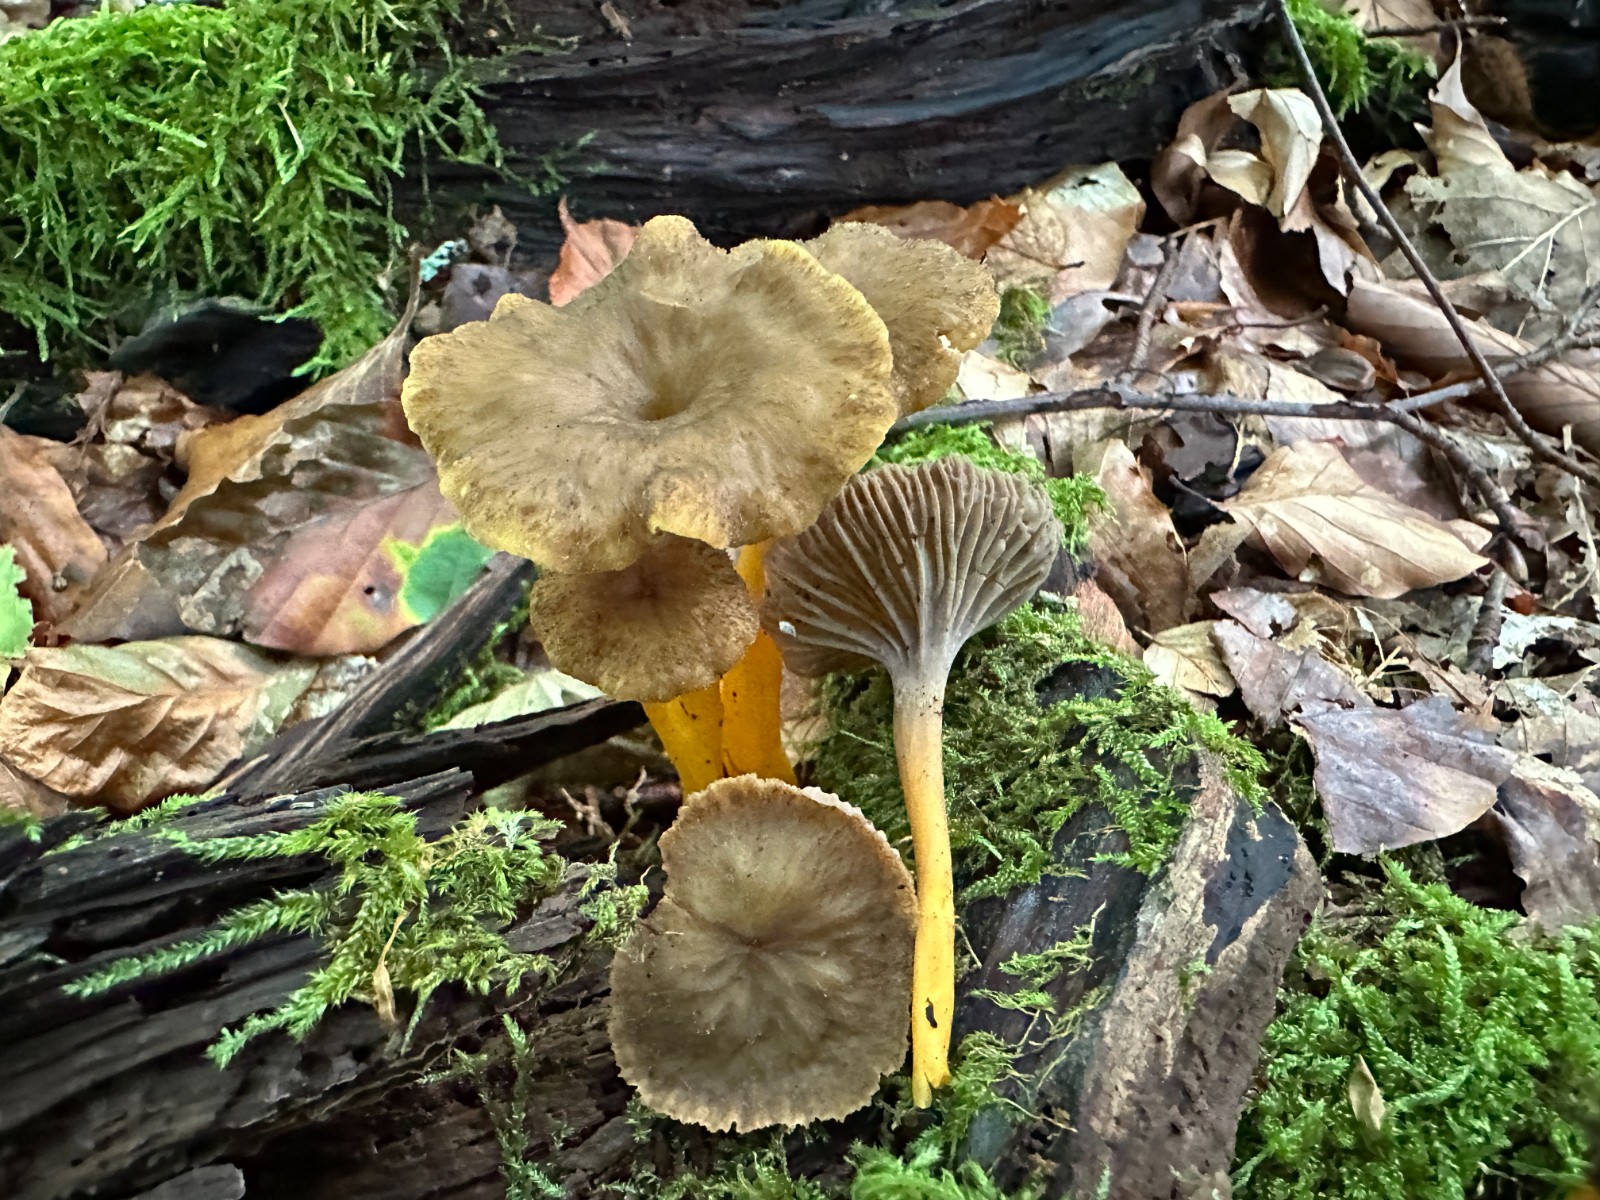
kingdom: Fungi
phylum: Basidiomycota
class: Agaricomycetes
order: Cantharellales
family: Hydnaceae
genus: Craterellus
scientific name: Craterellus tubaeformis
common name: tragt-kantarel
